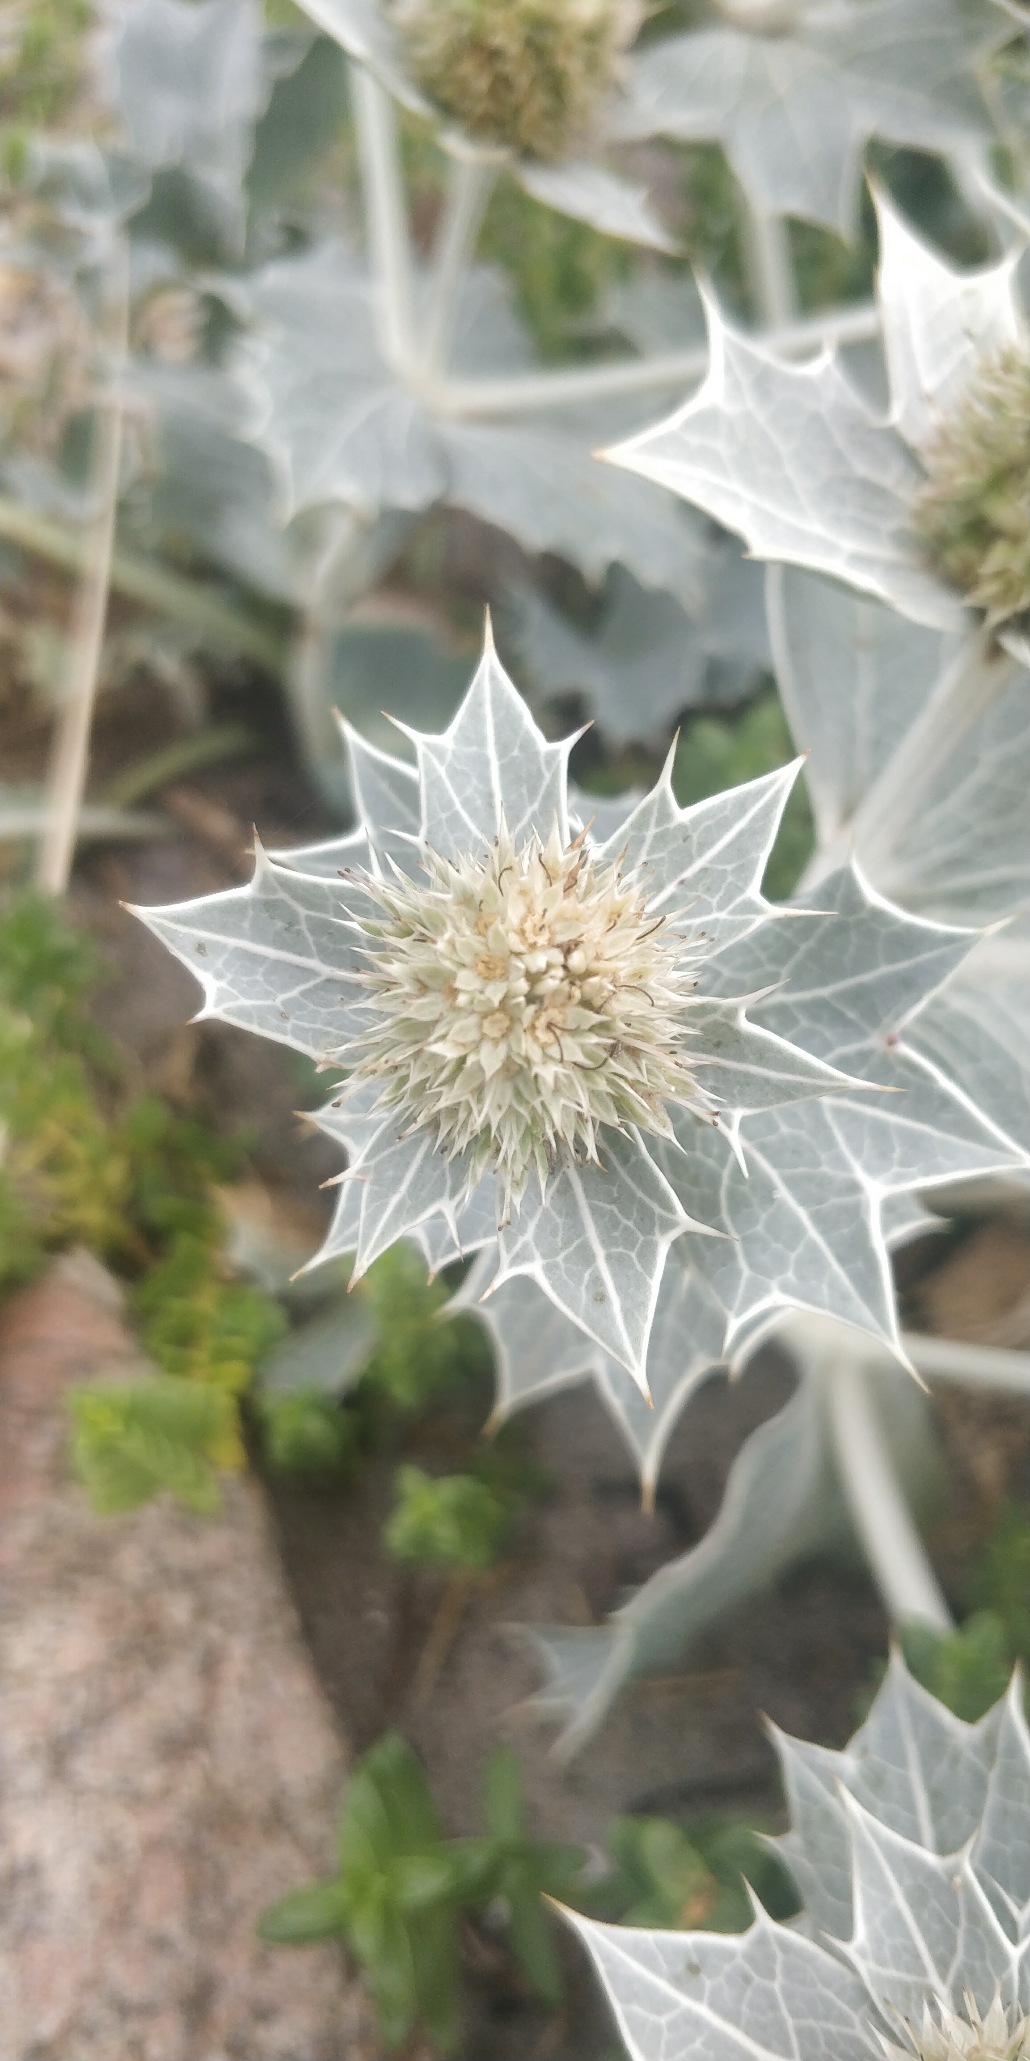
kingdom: Plantae
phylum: Tracheophyta
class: Magnoliopsida
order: Apiales
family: Apiaceae
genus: Eryngium
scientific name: Eryngium maritimum
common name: Strand-mandstro
